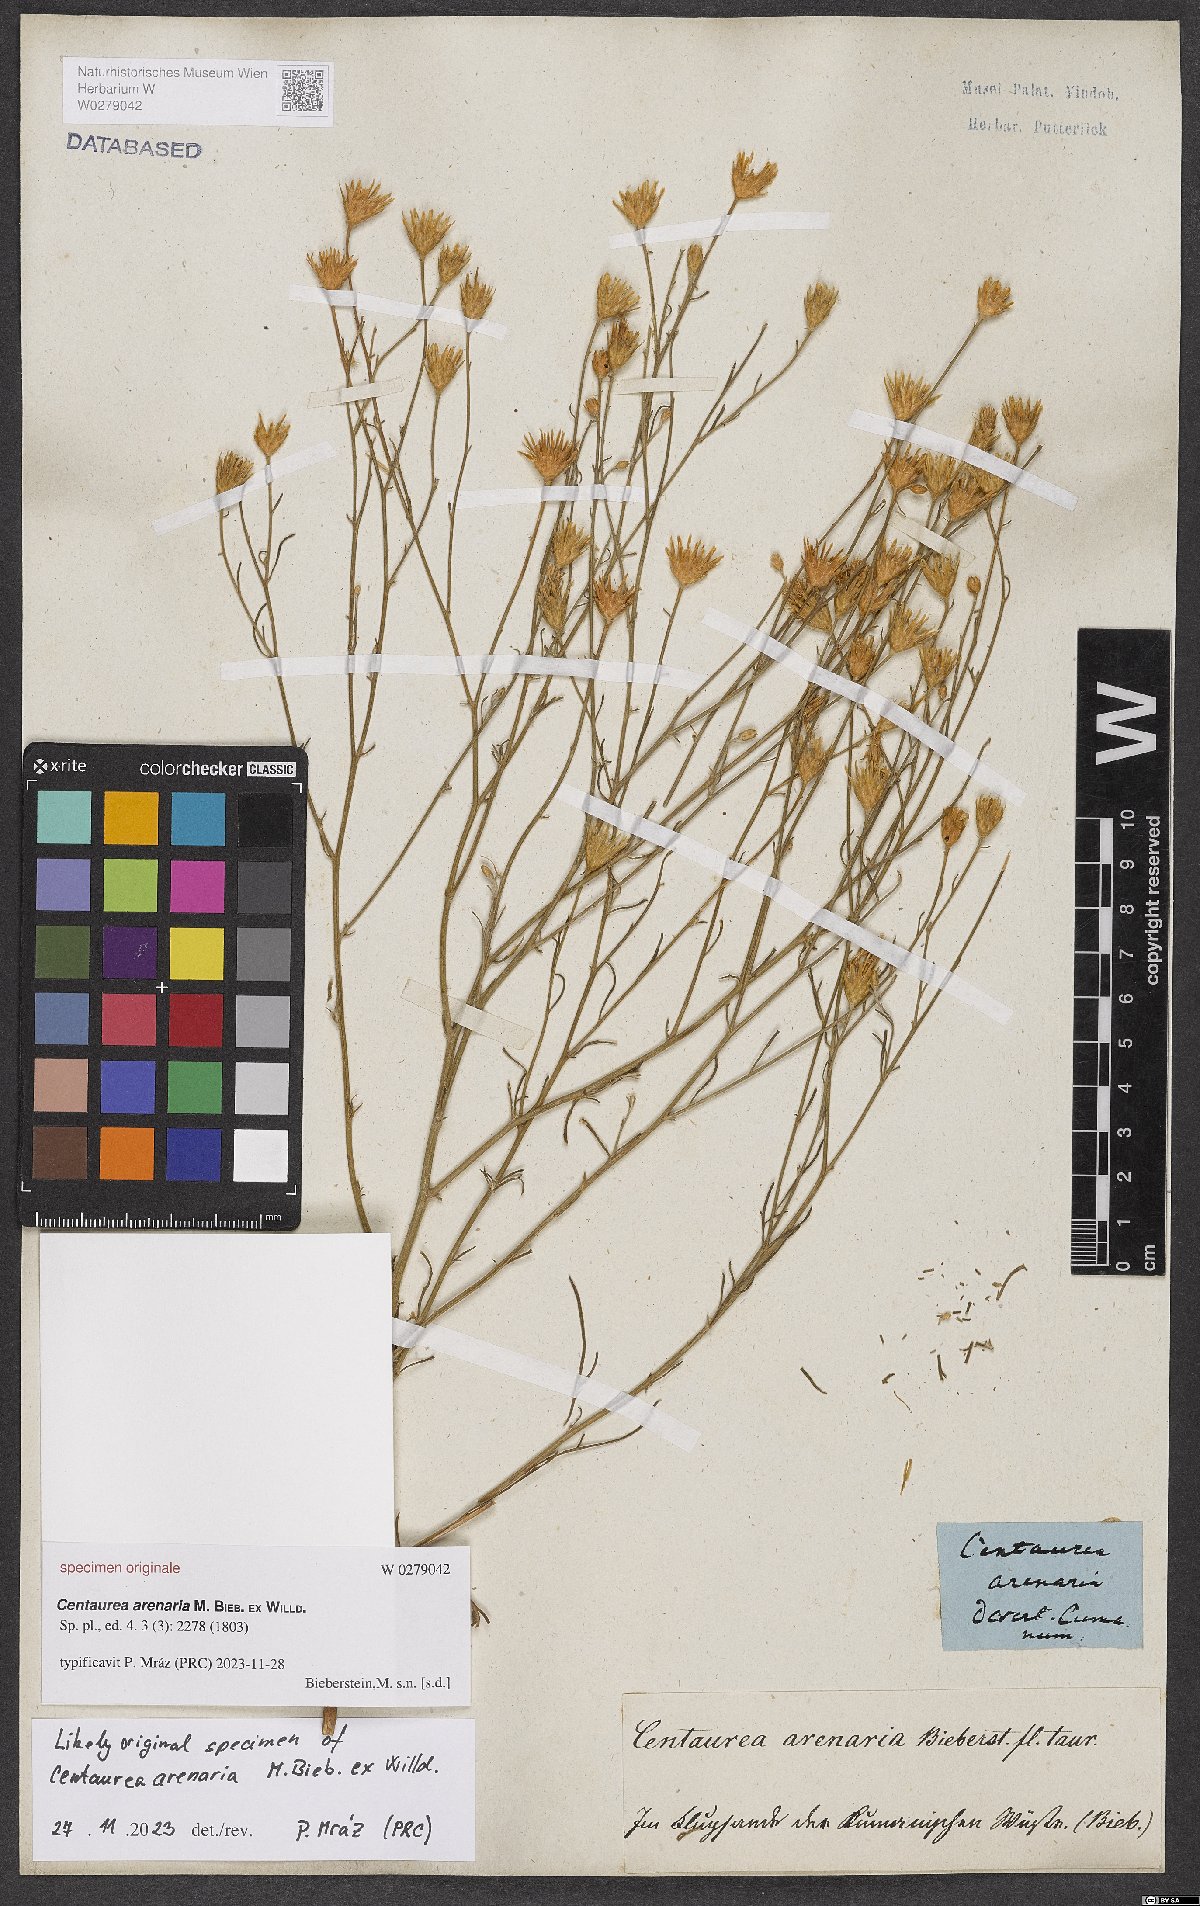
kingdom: Plantae
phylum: Tracheophyta
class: Magnoliopsida
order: Asterales
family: Asteraceae
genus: Centaurea
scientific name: Centaurea arenaria
